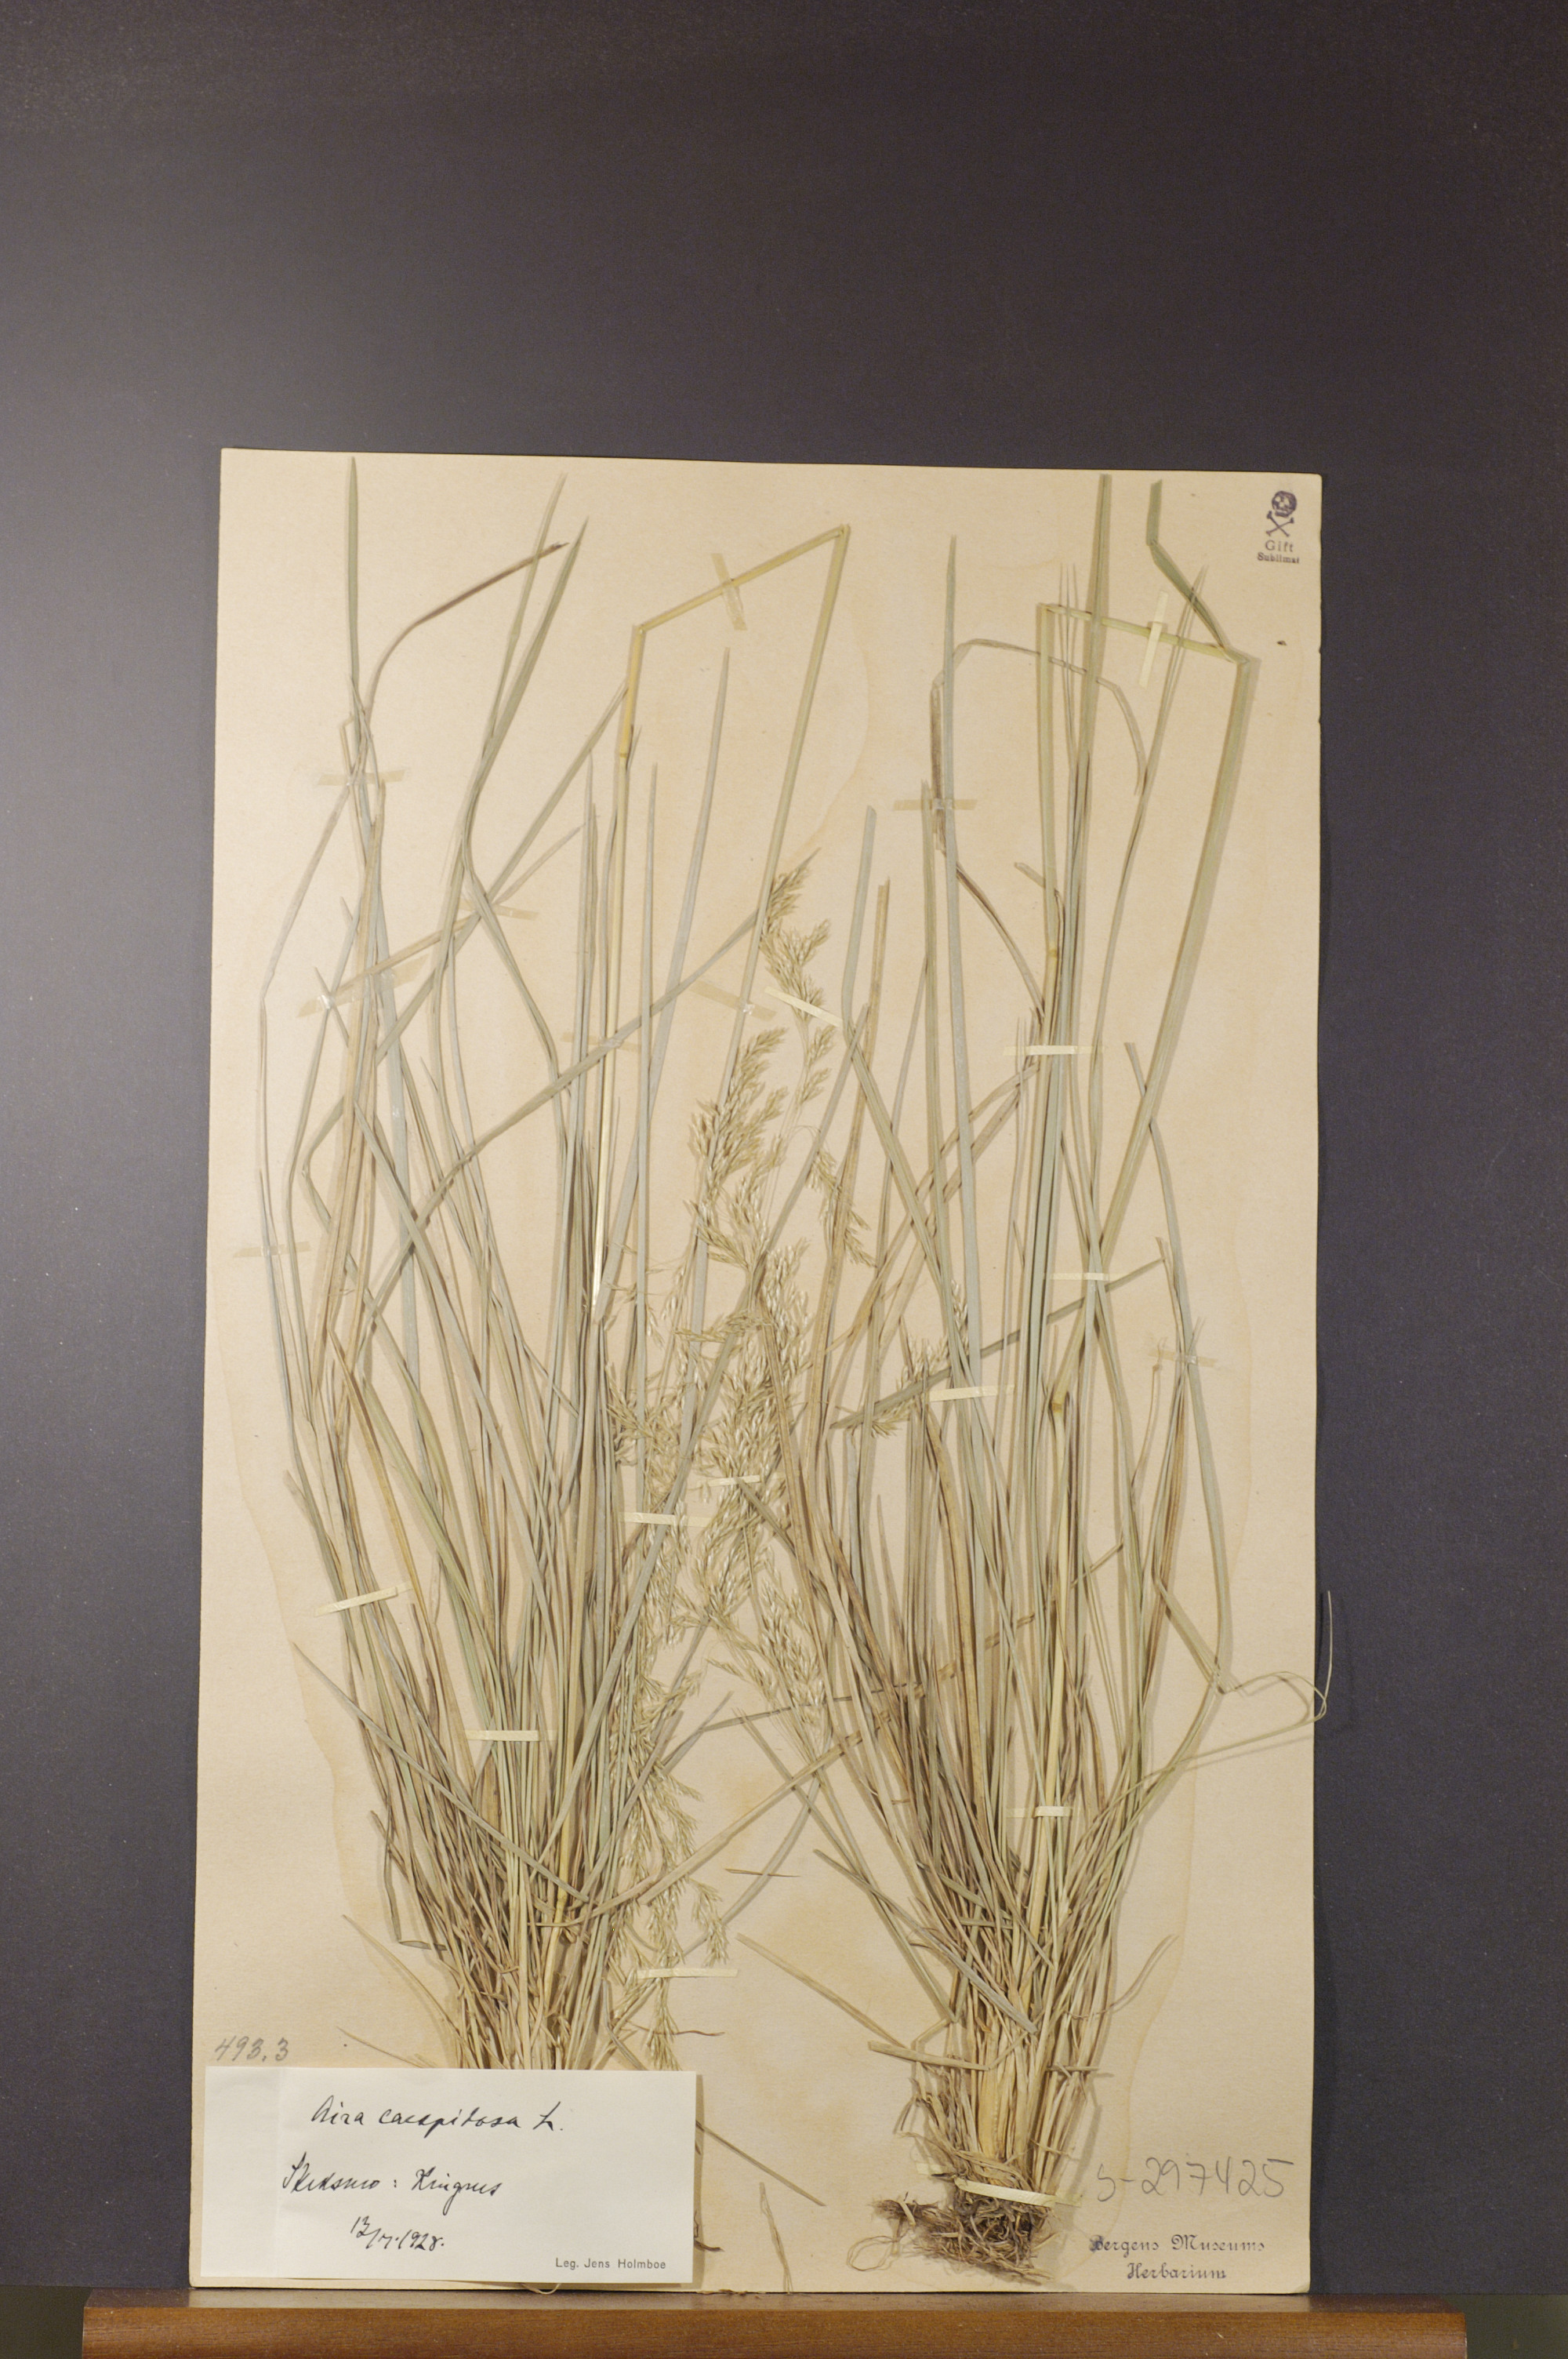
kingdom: Plantae
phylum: Tracheophyta
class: Liliopsida
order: Poales
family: Poaceae
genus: Deschampsia
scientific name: Deschampsia cespitosa
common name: Tufted hair-grass
